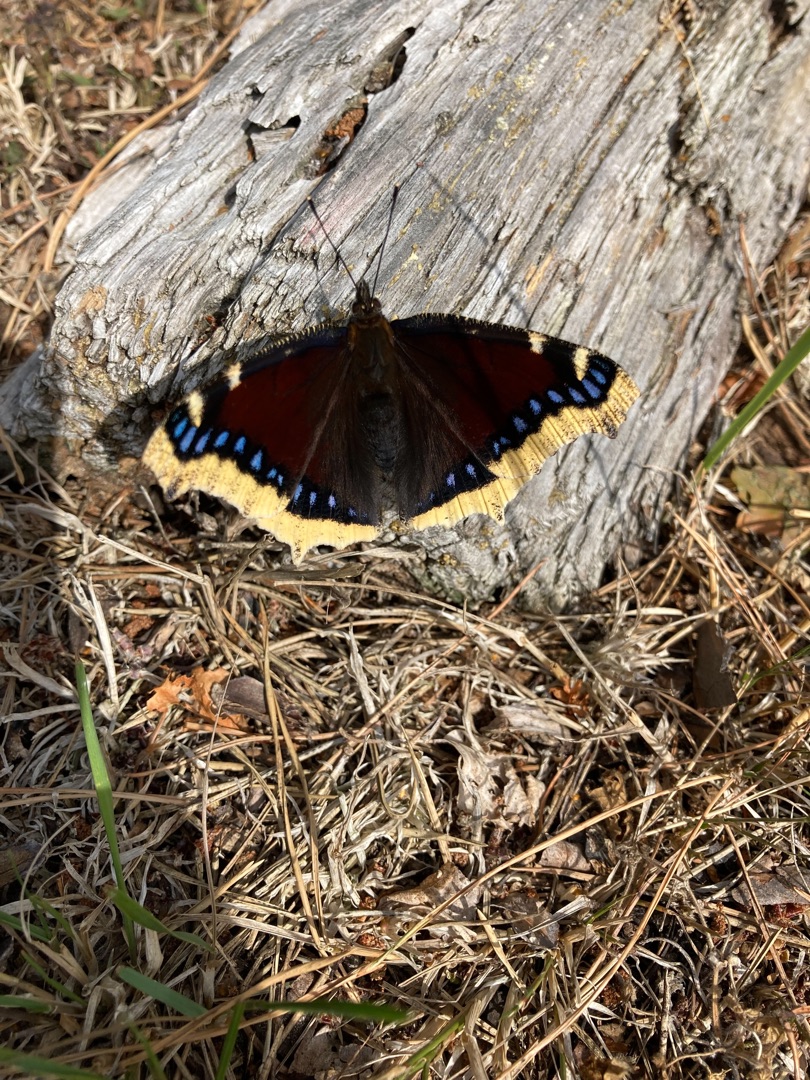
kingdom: Animalia
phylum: Arthropoda
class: Insecta
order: Lepidoptera
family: Nymphalidae
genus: Nymphalis
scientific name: Nymphalis antiopa
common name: Sørgekåbe
